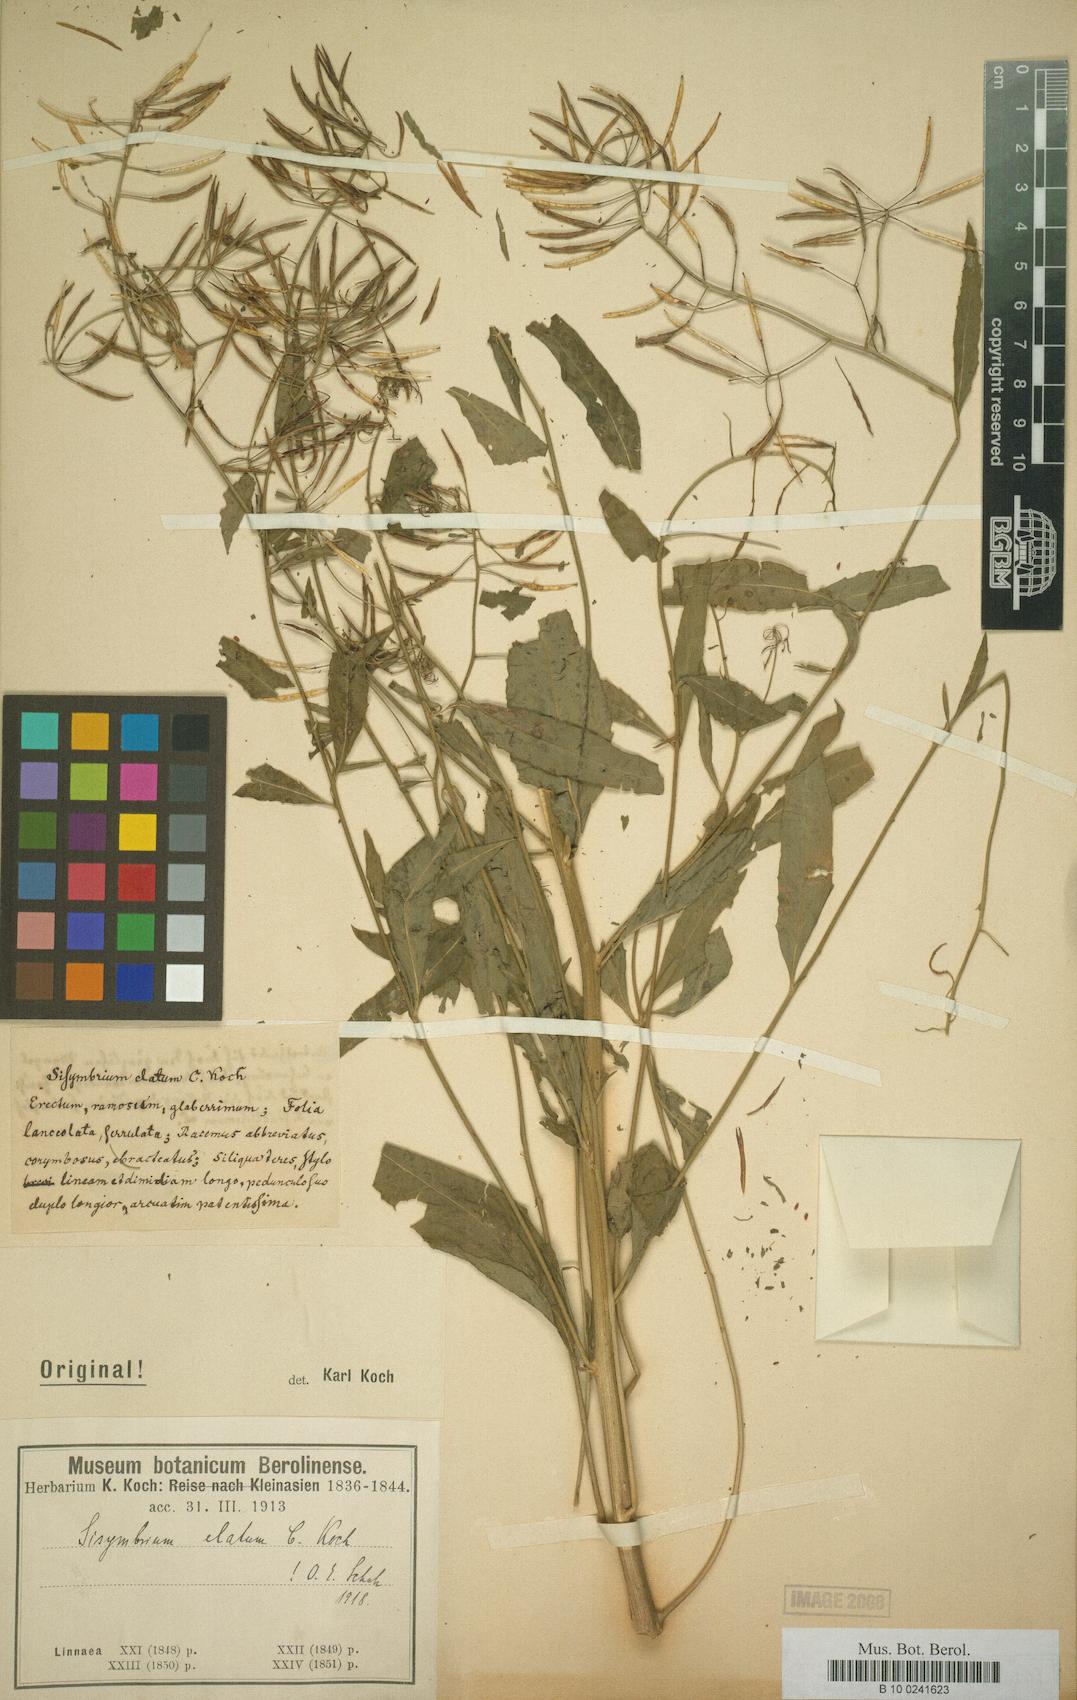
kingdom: Plantae
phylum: Tracheophyta
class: Magnoliopsida
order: Brassicales
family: Brassicaceae
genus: Sisymbrium
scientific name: Sisymbrium elatum
